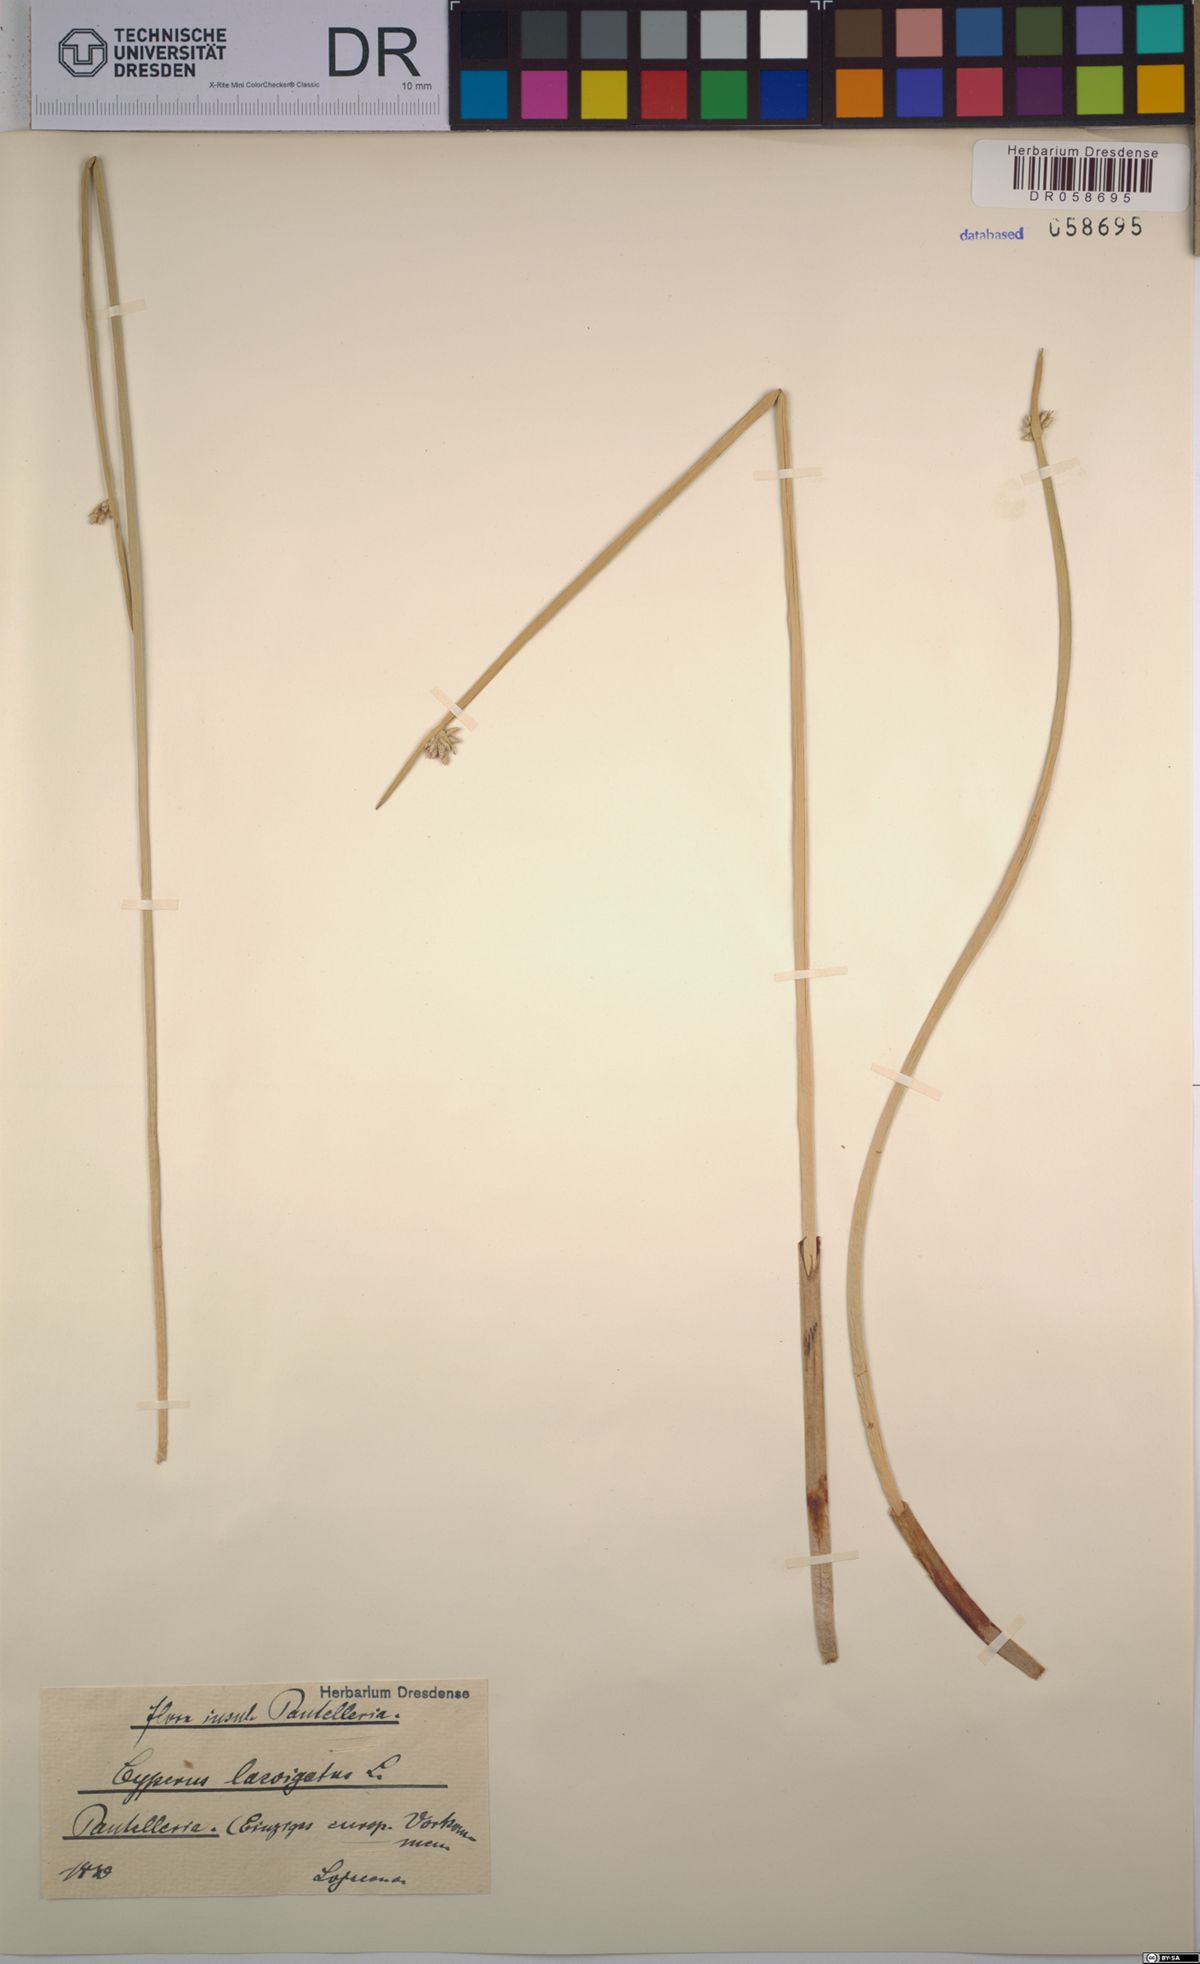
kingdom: Plantae
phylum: Tracheophyta
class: Liliopsida
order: Poales
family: Cyperaceae
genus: Cyperus
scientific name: Cyperus laevigatus
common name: Smooth flat sedge
